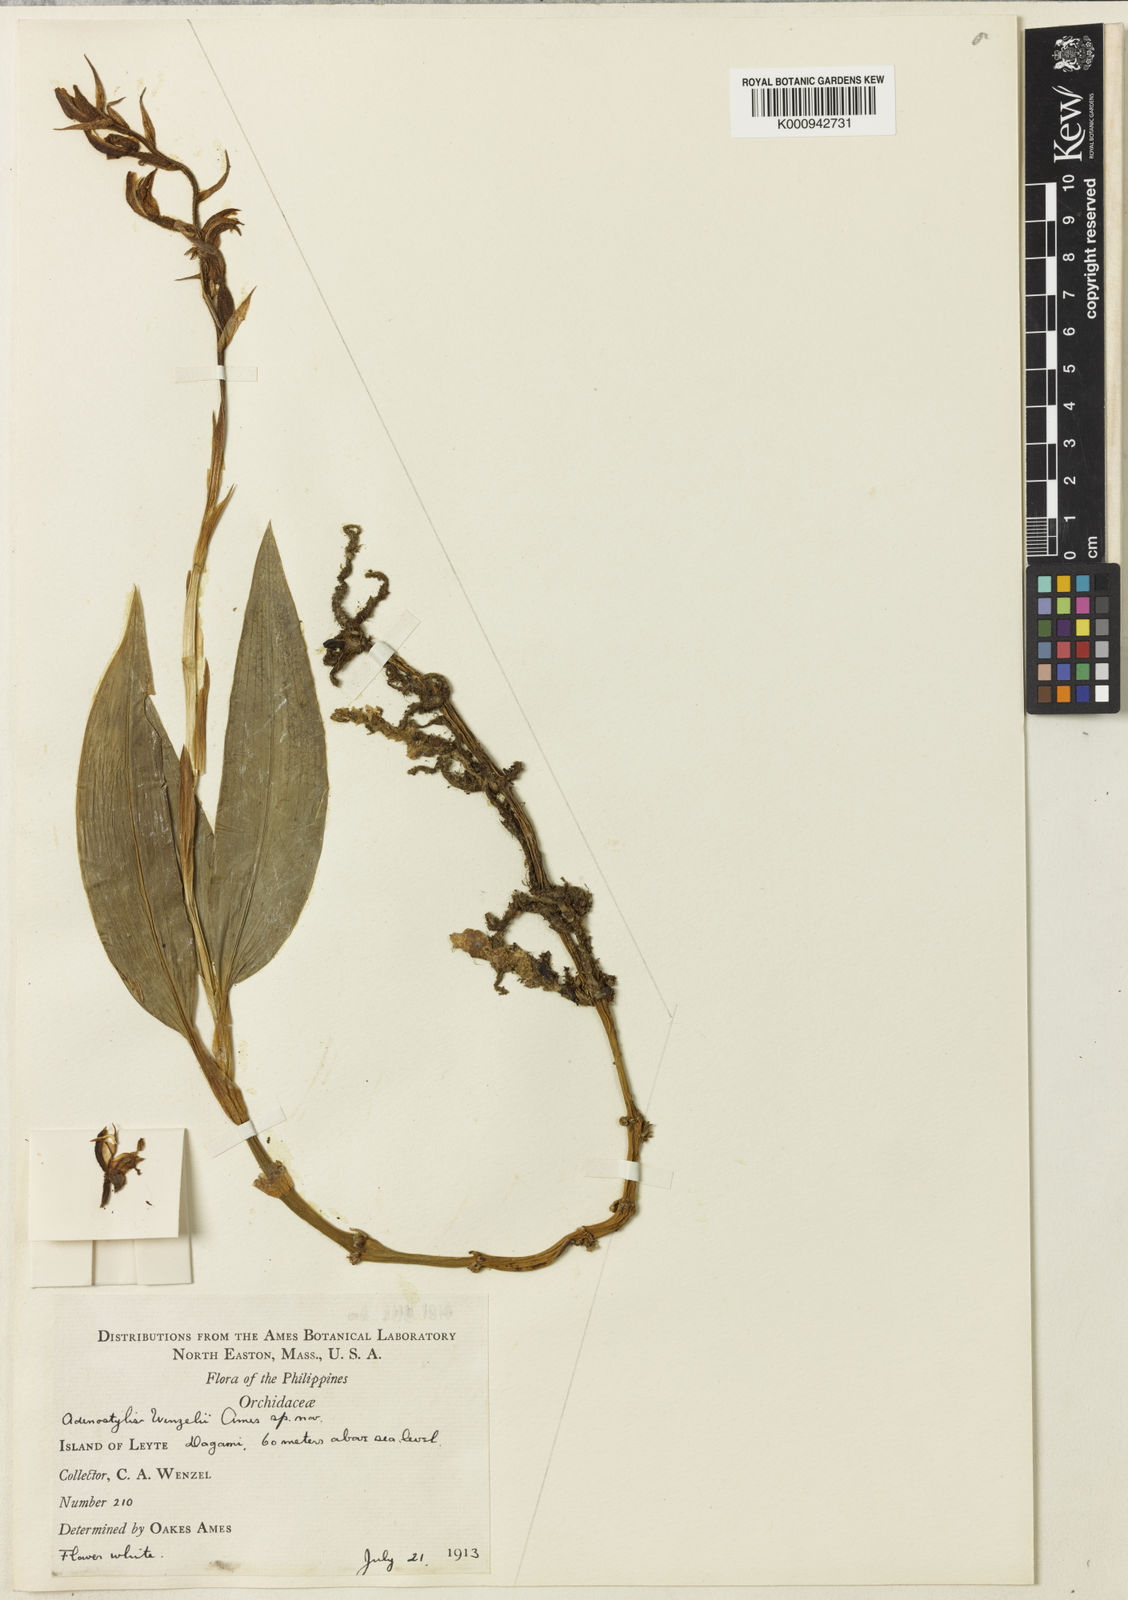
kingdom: Plantae
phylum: Tracheophyta
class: Liliopsida
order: Asparagales
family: Orchidaceae
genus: Orchipedum
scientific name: Orchipedum wenzelii
